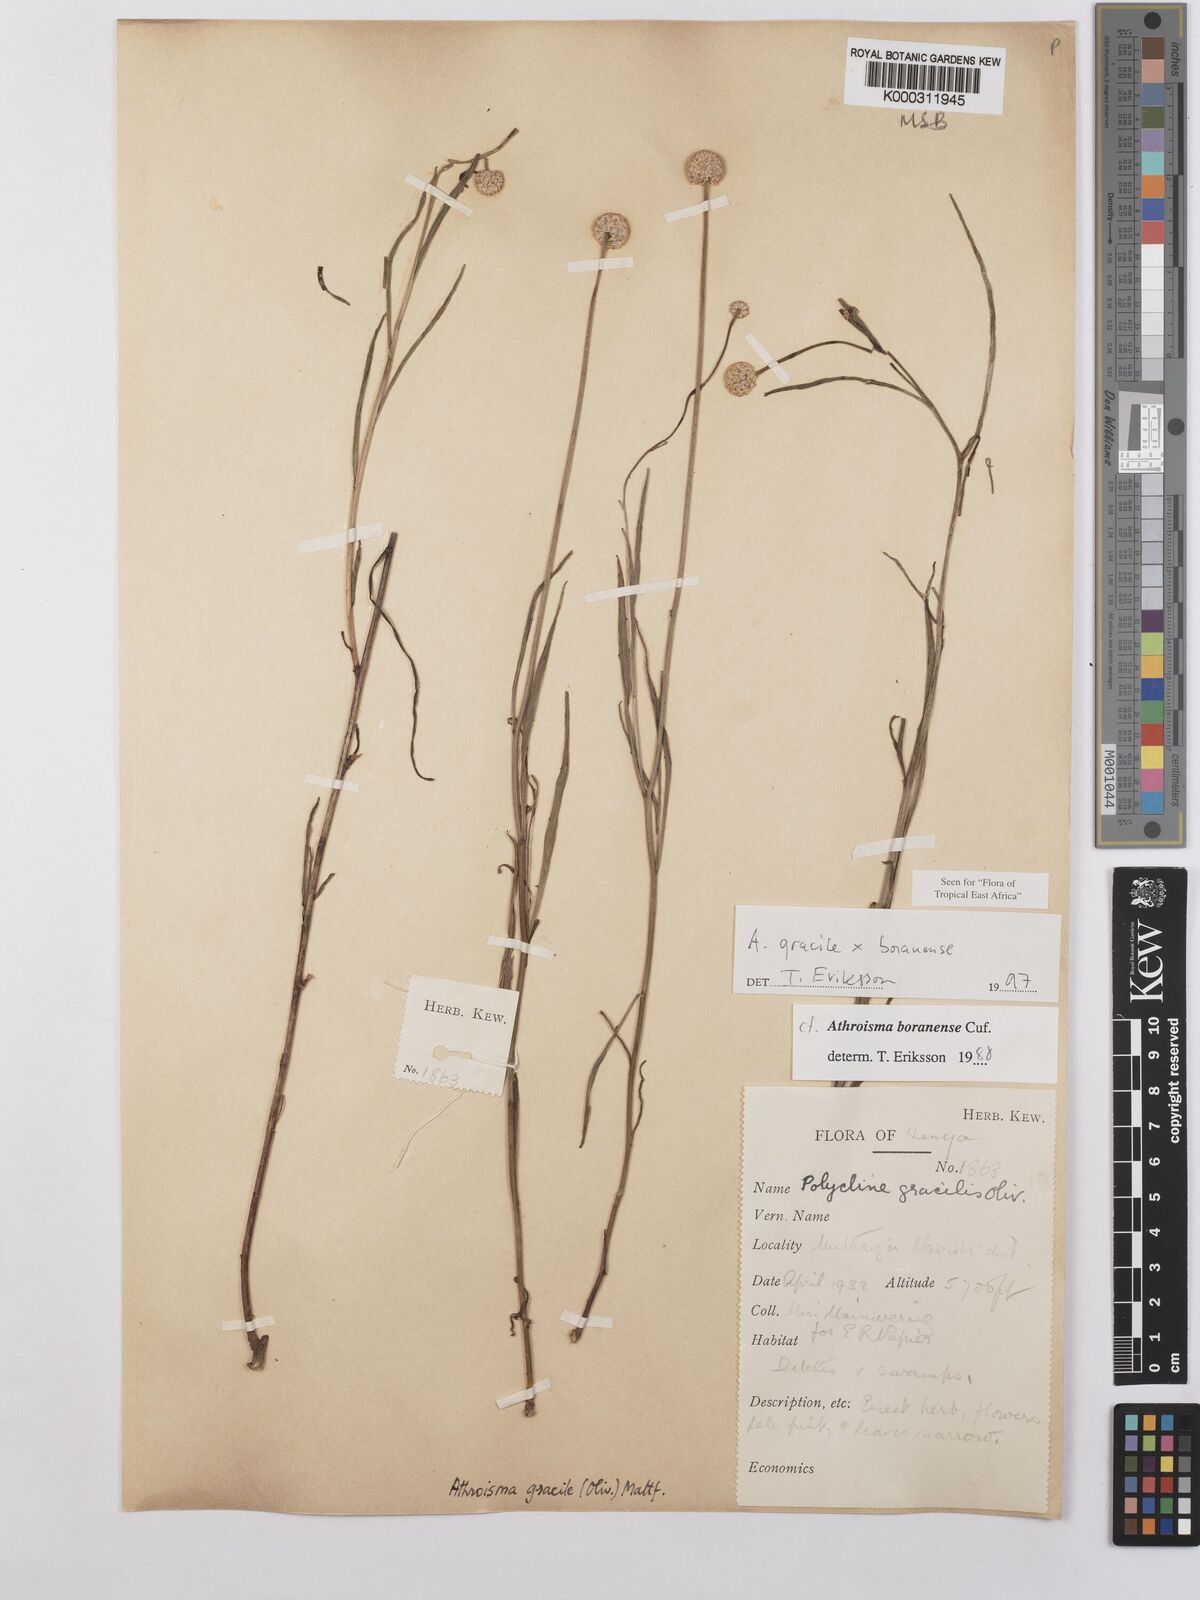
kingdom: Plantae
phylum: Tracheophyta
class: Magnoliopsida
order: Asterales
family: Asteraceae
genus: Athroisma
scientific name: Athroisma
